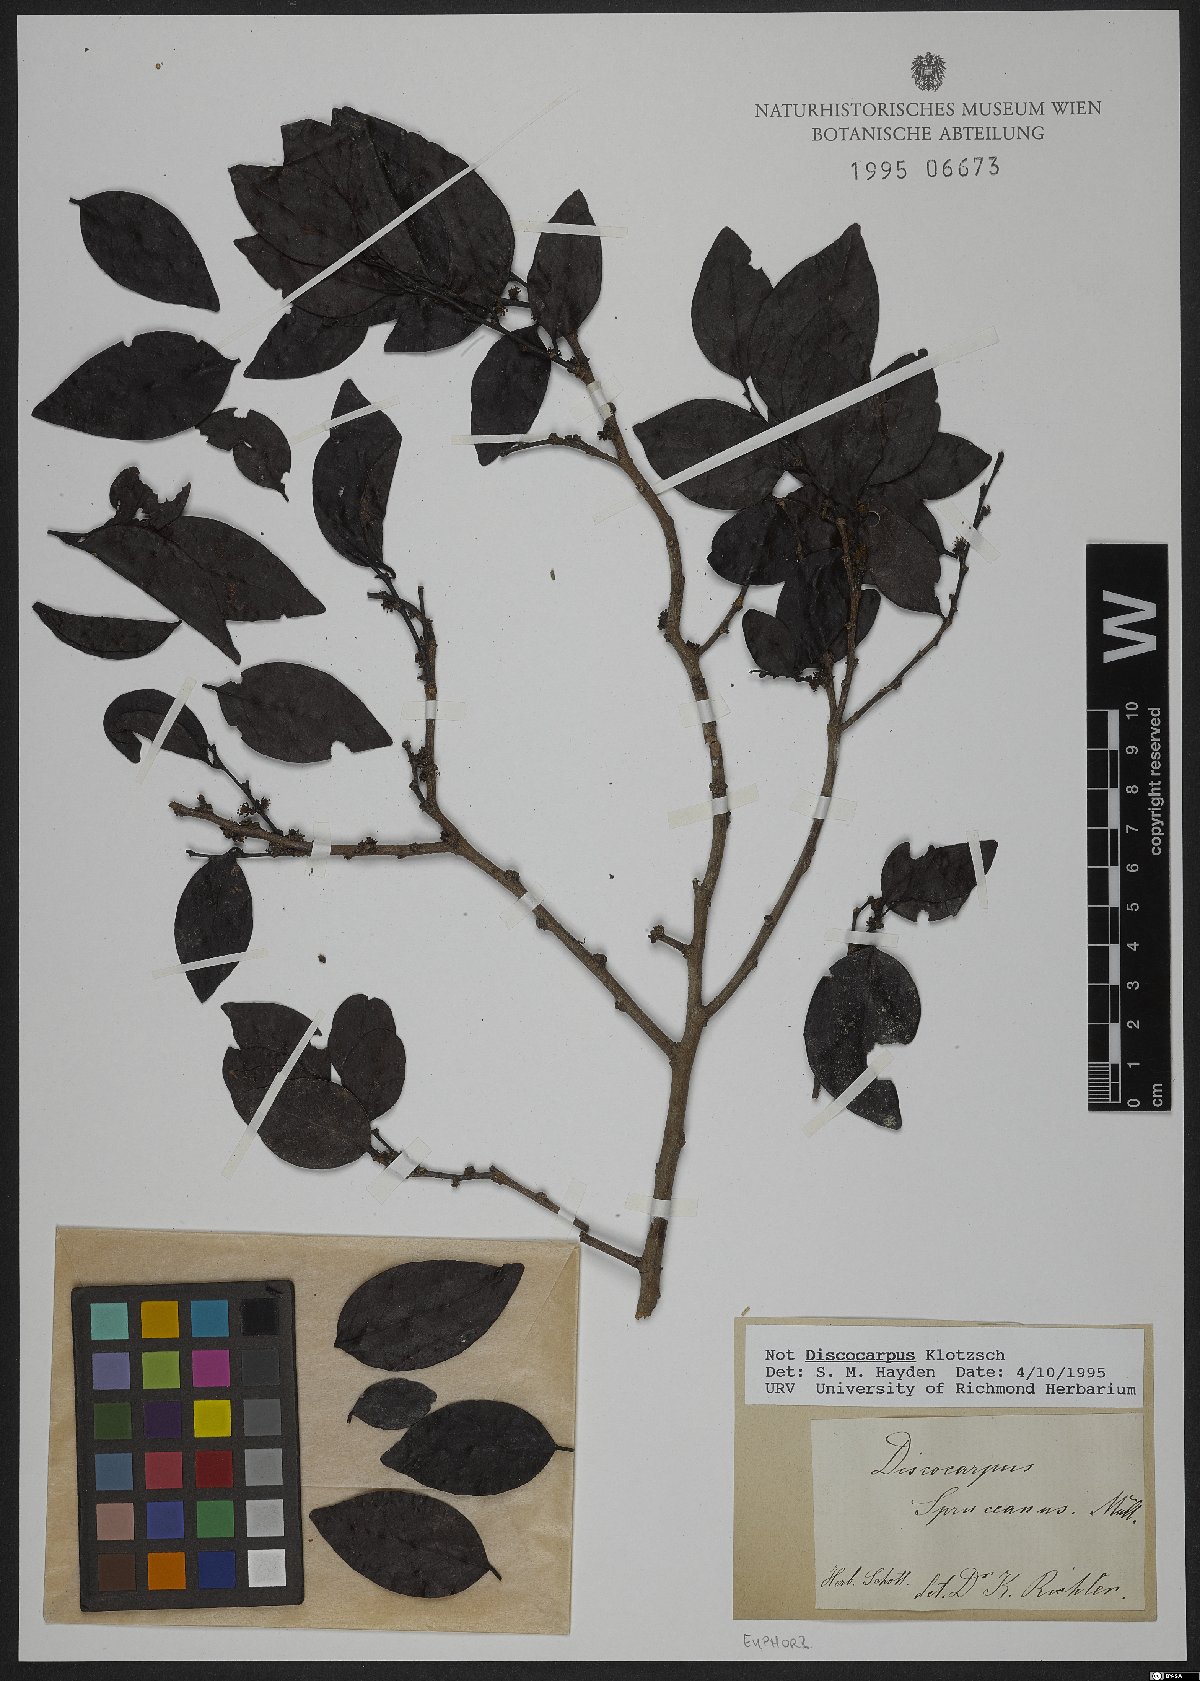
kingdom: Plantae
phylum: Tracheophyta
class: Magnoliopsida
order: Malpighiales
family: Phyllanthaceae
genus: Discocarpus
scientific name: Discocarpus spruceanus
